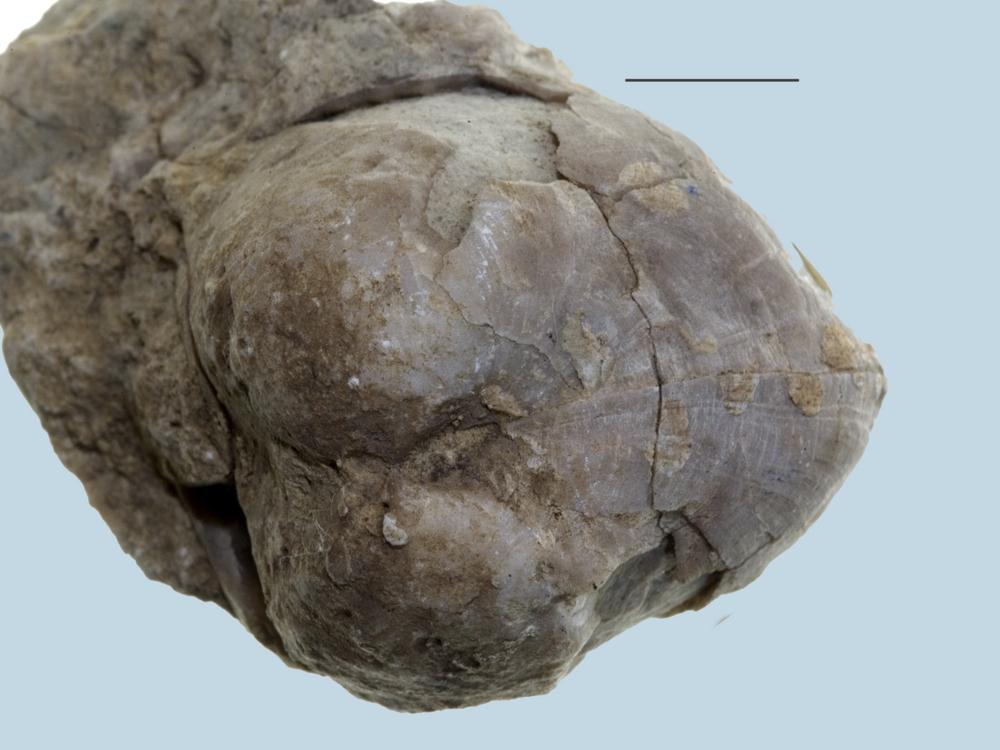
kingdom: Animalia
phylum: Brachiopoda
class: Rhynchonellata
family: Porambonitidae
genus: Porambonites
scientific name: Porambonites schmidti
